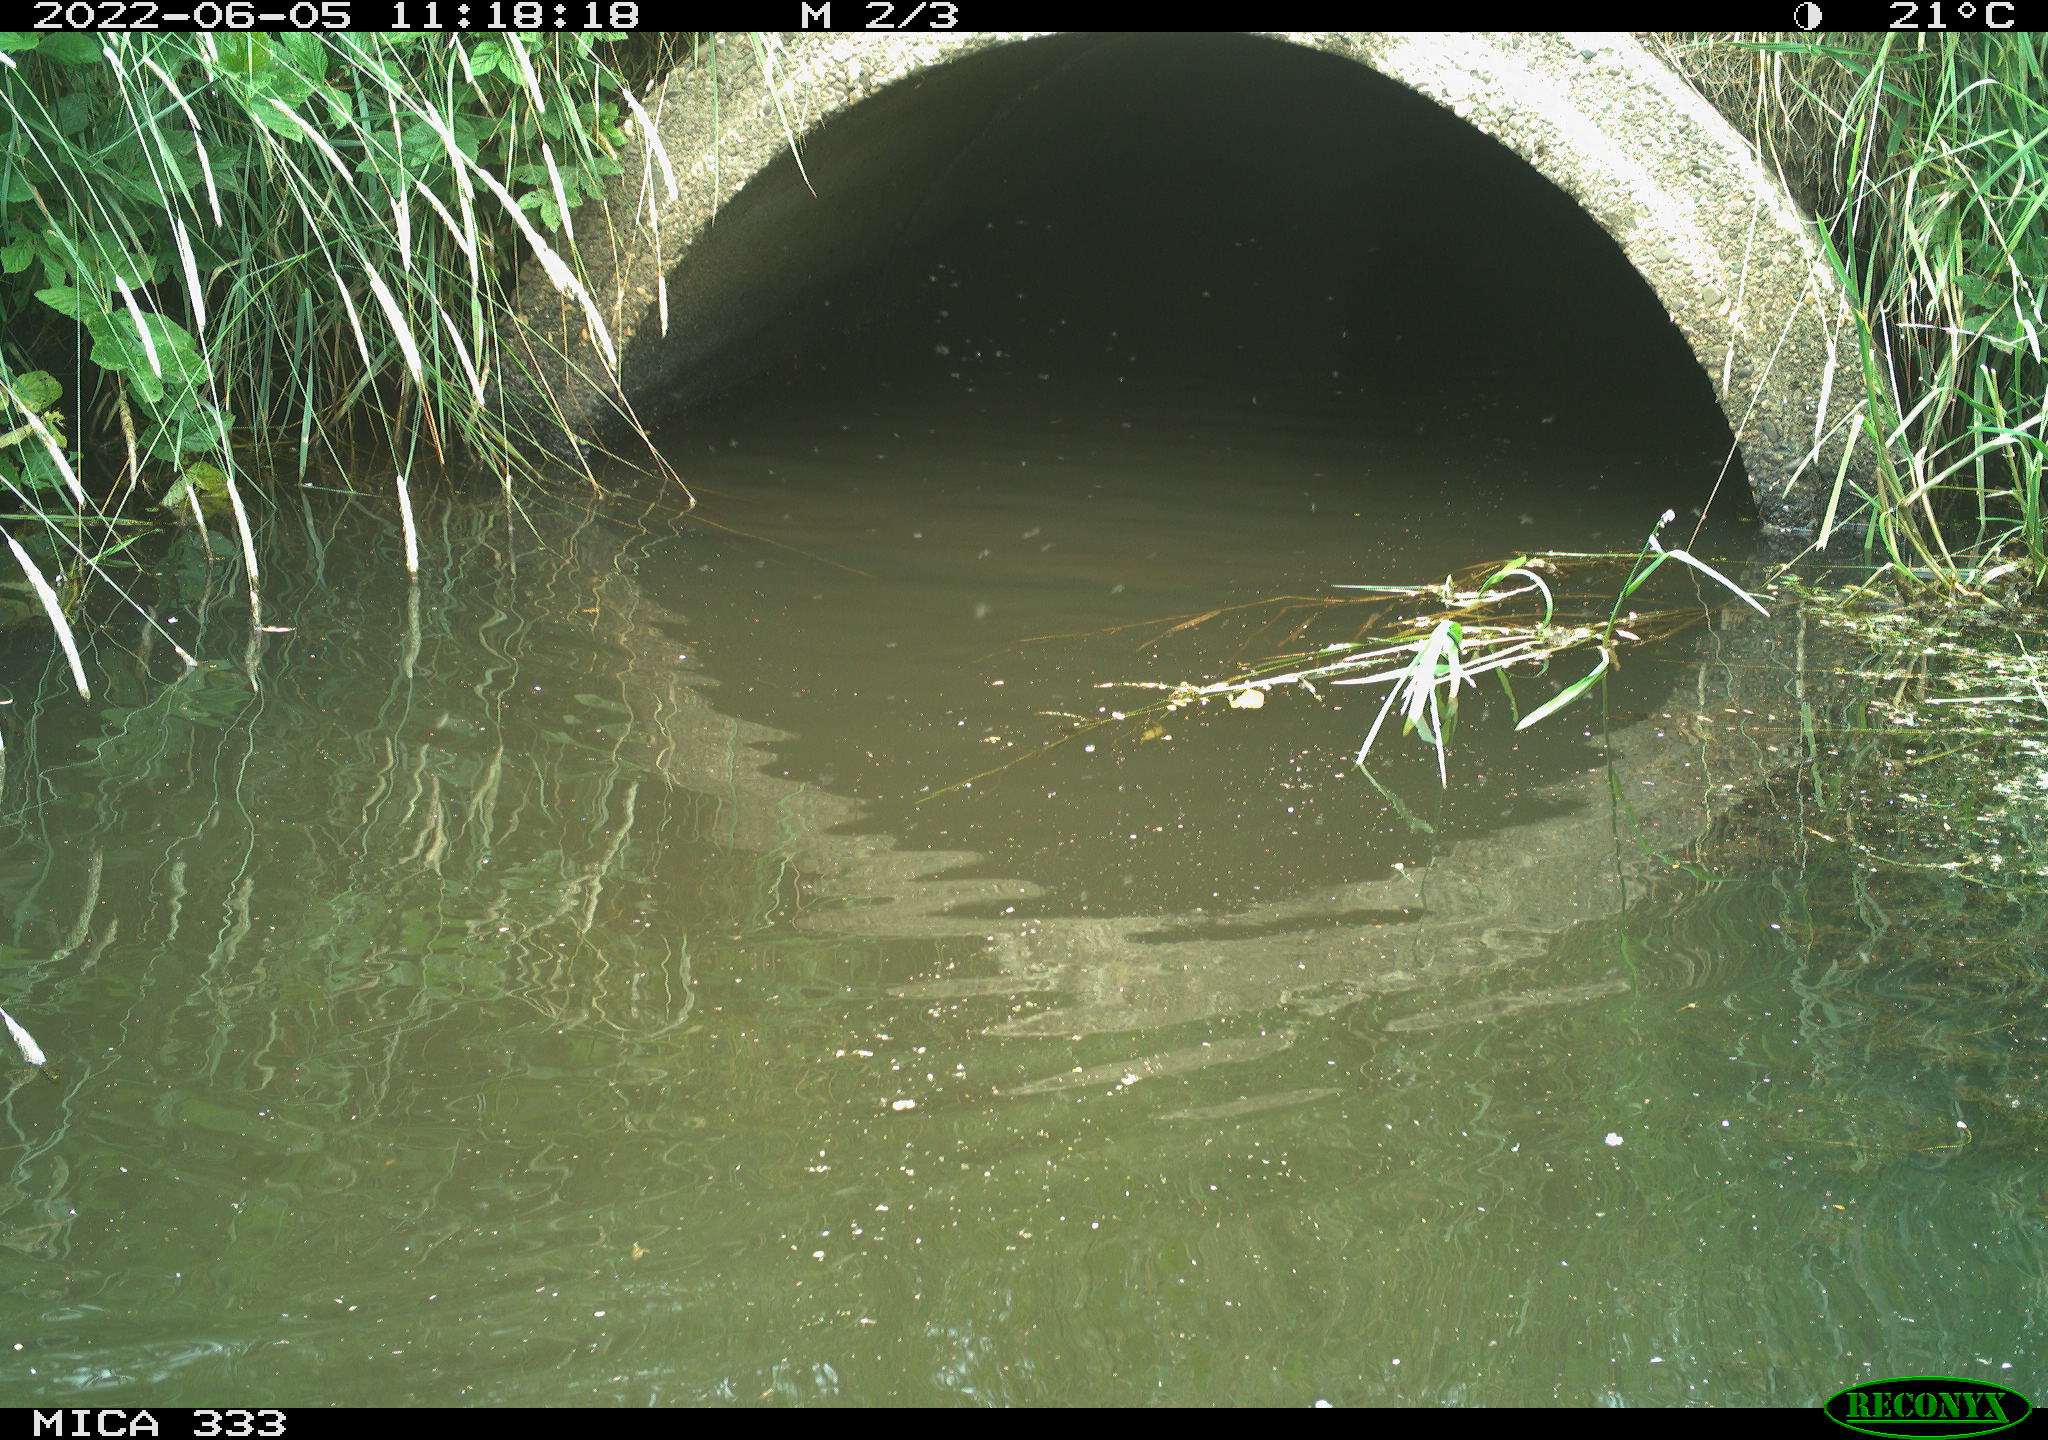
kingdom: Animalia
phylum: Chordata
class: Aves
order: Anseriformes
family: Anatidae
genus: Anas
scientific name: Anas platyrhynchos
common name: Mallard
